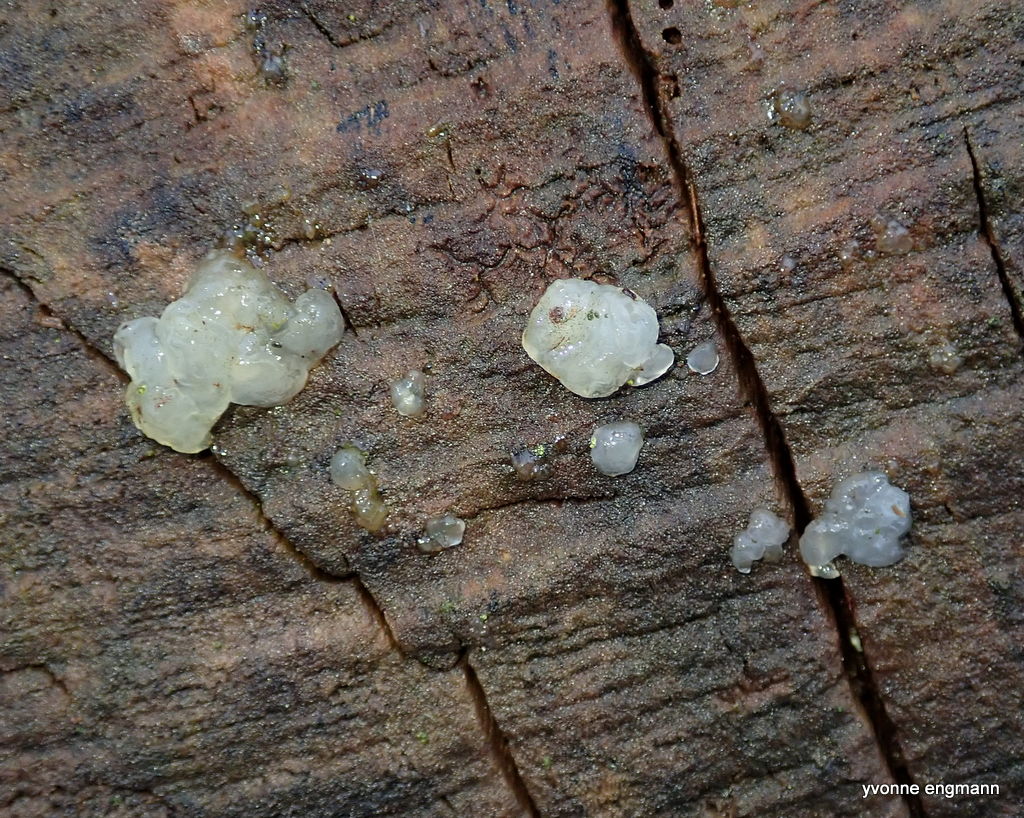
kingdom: Fungi
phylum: Basidiomycota
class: Agaricomycetes
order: Auriculariales
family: Hyaloriaceae
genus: Myxarium
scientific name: Myxarium nucleatum
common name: klar bævretop
